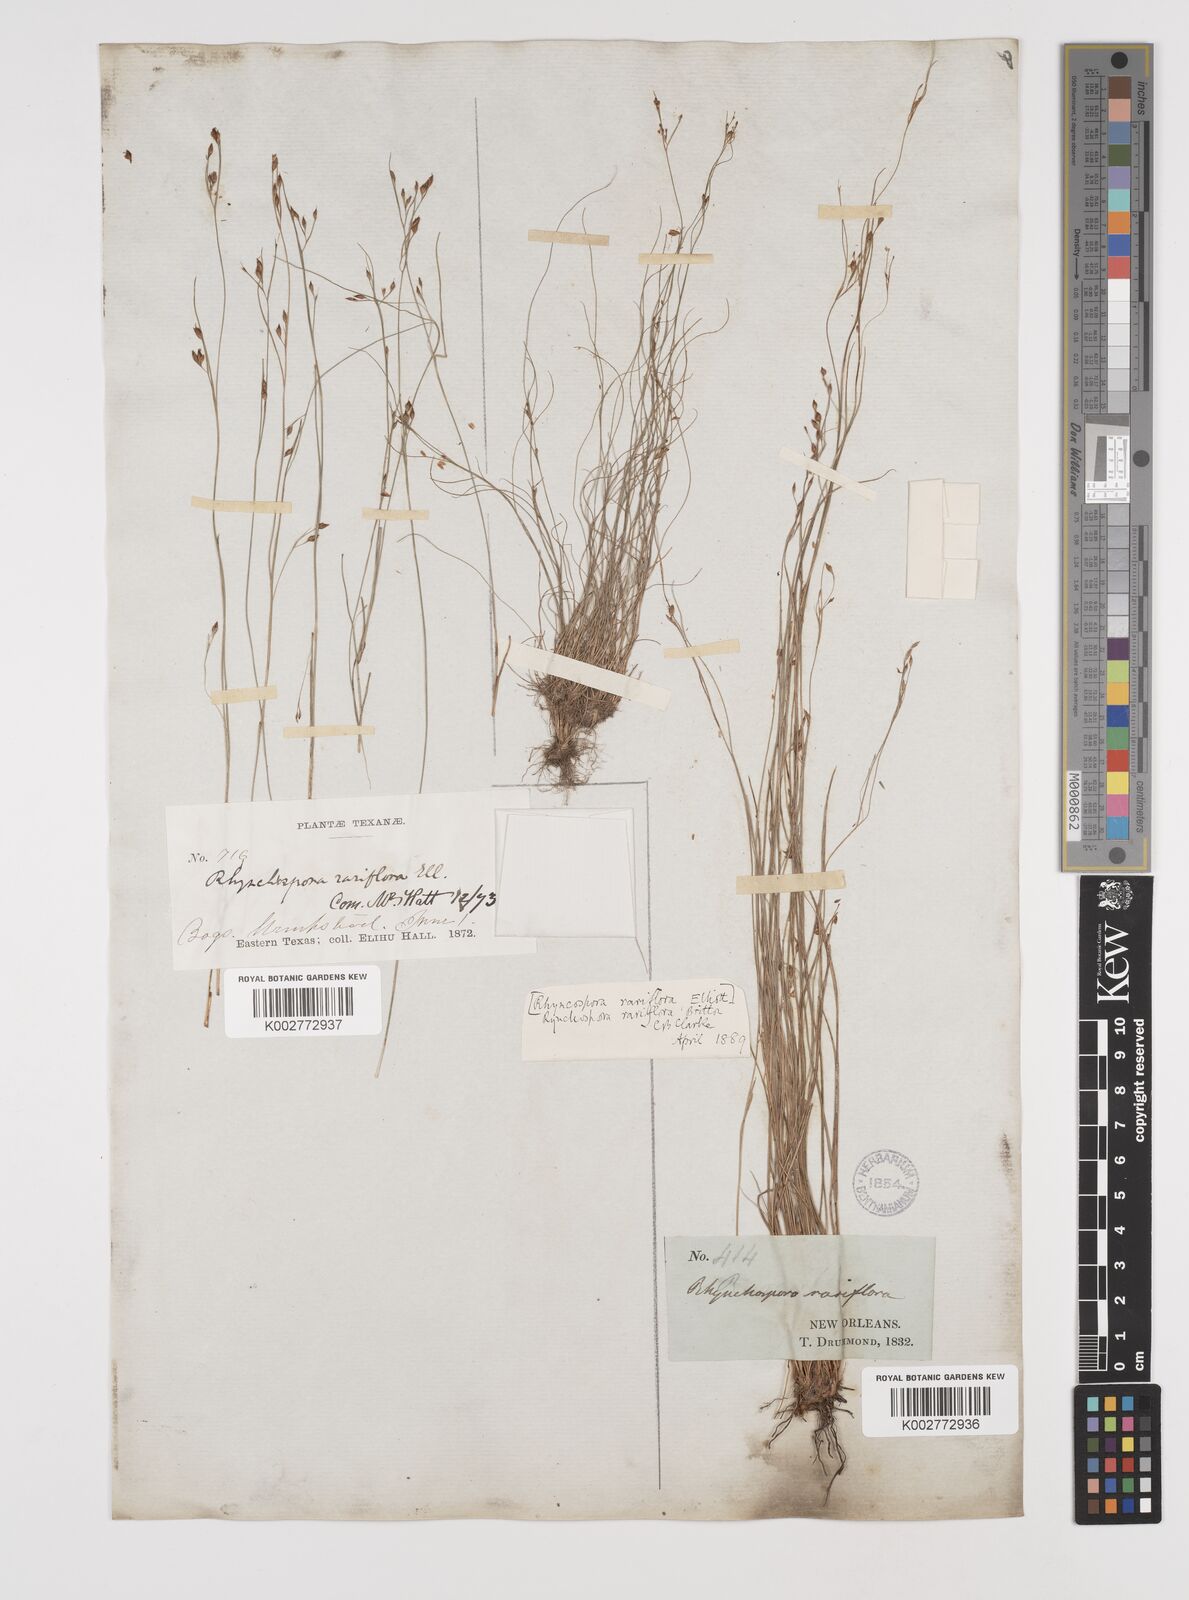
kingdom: Plantae
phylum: Tracheophyta
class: Liliopsida
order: Poales
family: Cyperaceae
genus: Rhynchospora
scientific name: Rhynchospora rariflora
